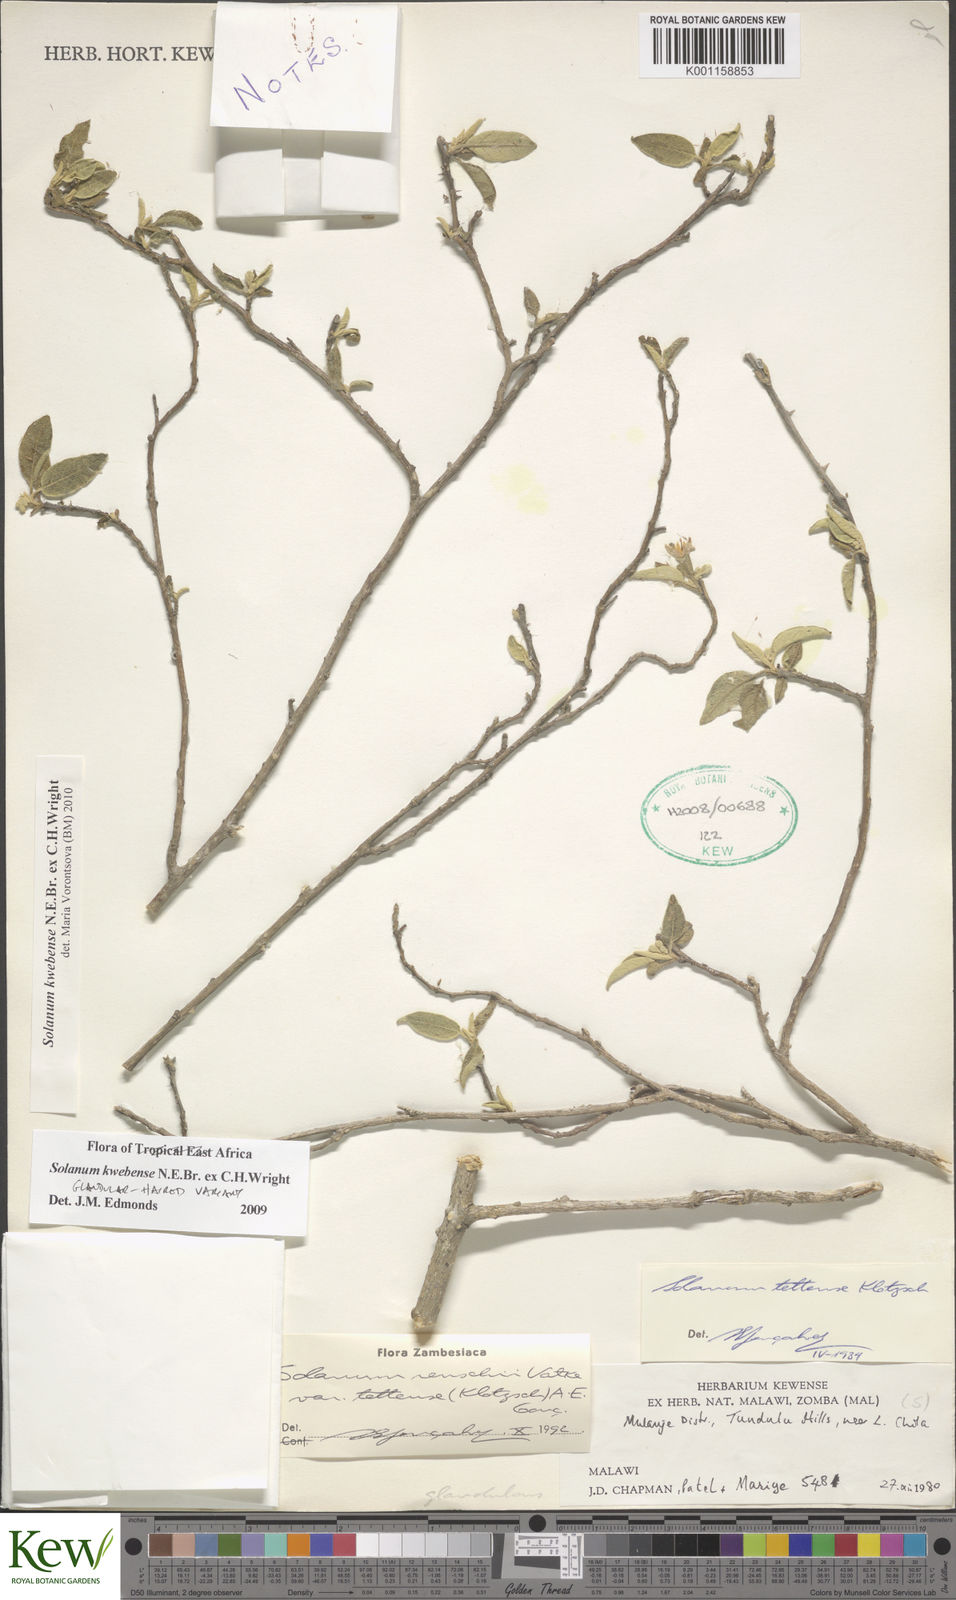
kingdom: Plantae
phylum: Tracheophyta
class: Magnoliopsida
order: Solanales
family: Solanaceae
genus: Solanum
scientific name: Solanum tettense
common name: Mozambique bitter apple
